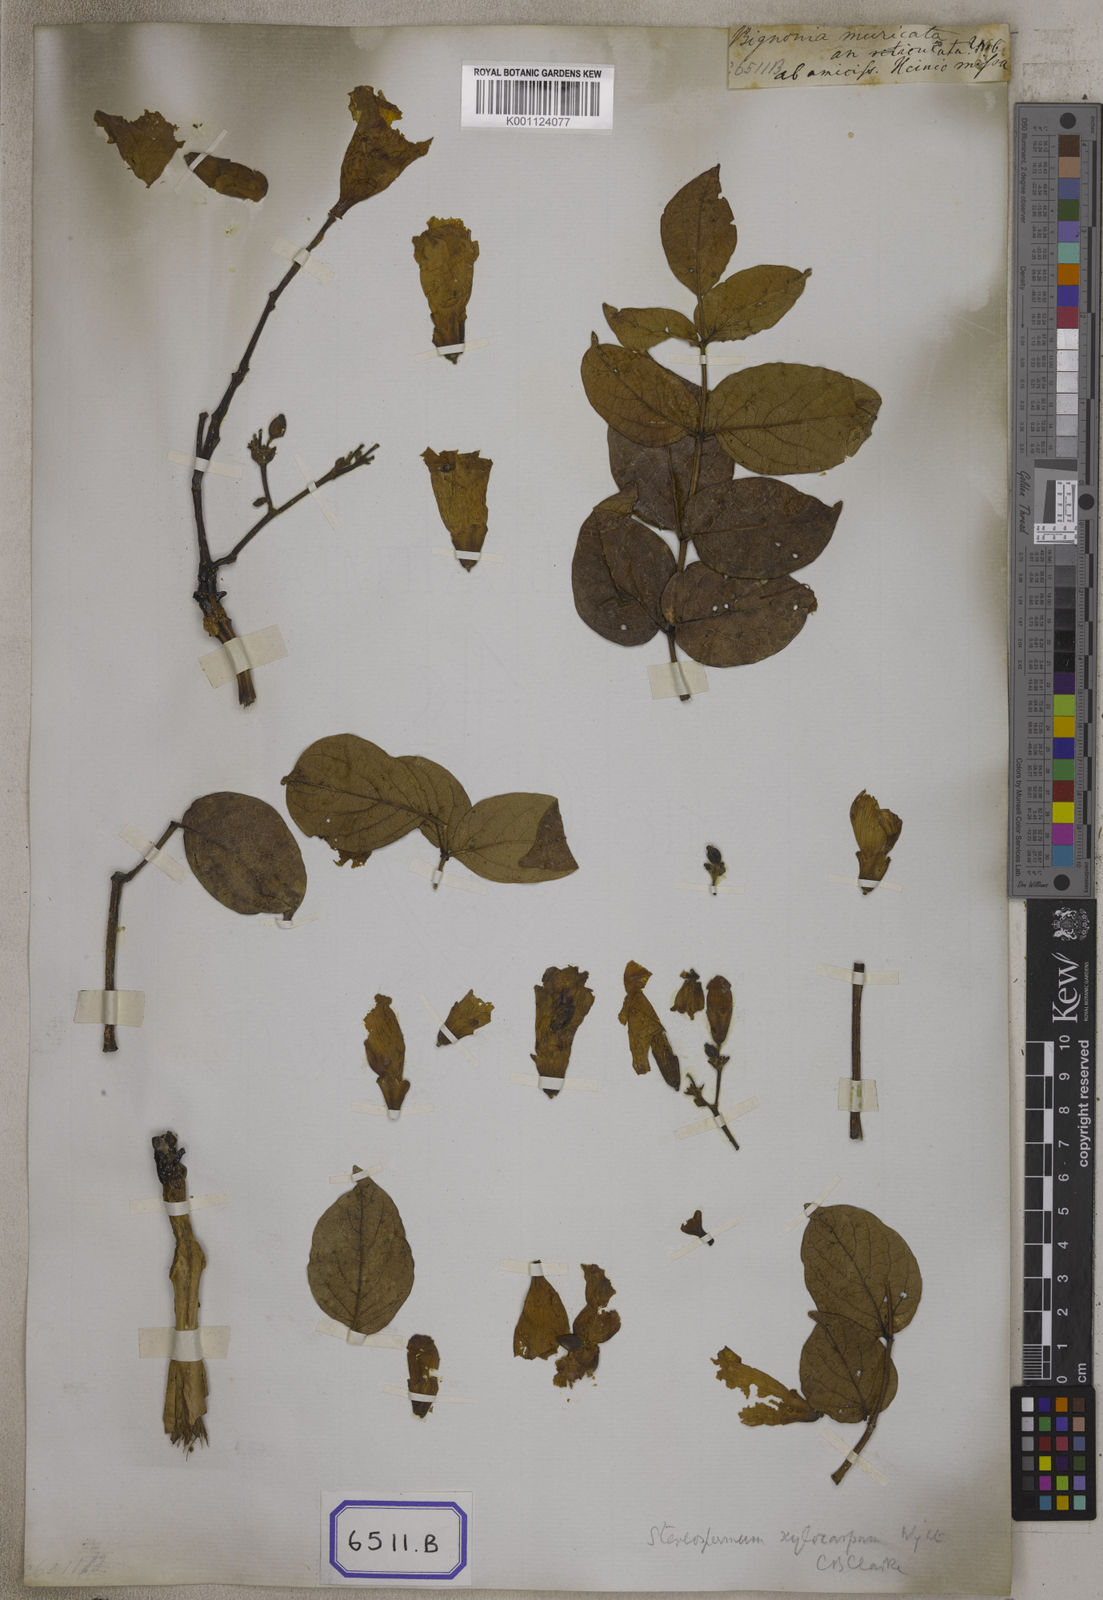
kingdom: Plantae
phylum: Tracheophyta
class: Magnoliopsida
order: Lamiales
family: Bignoniaceae
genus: Radermachera
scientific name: Radermachera xylocarpa
